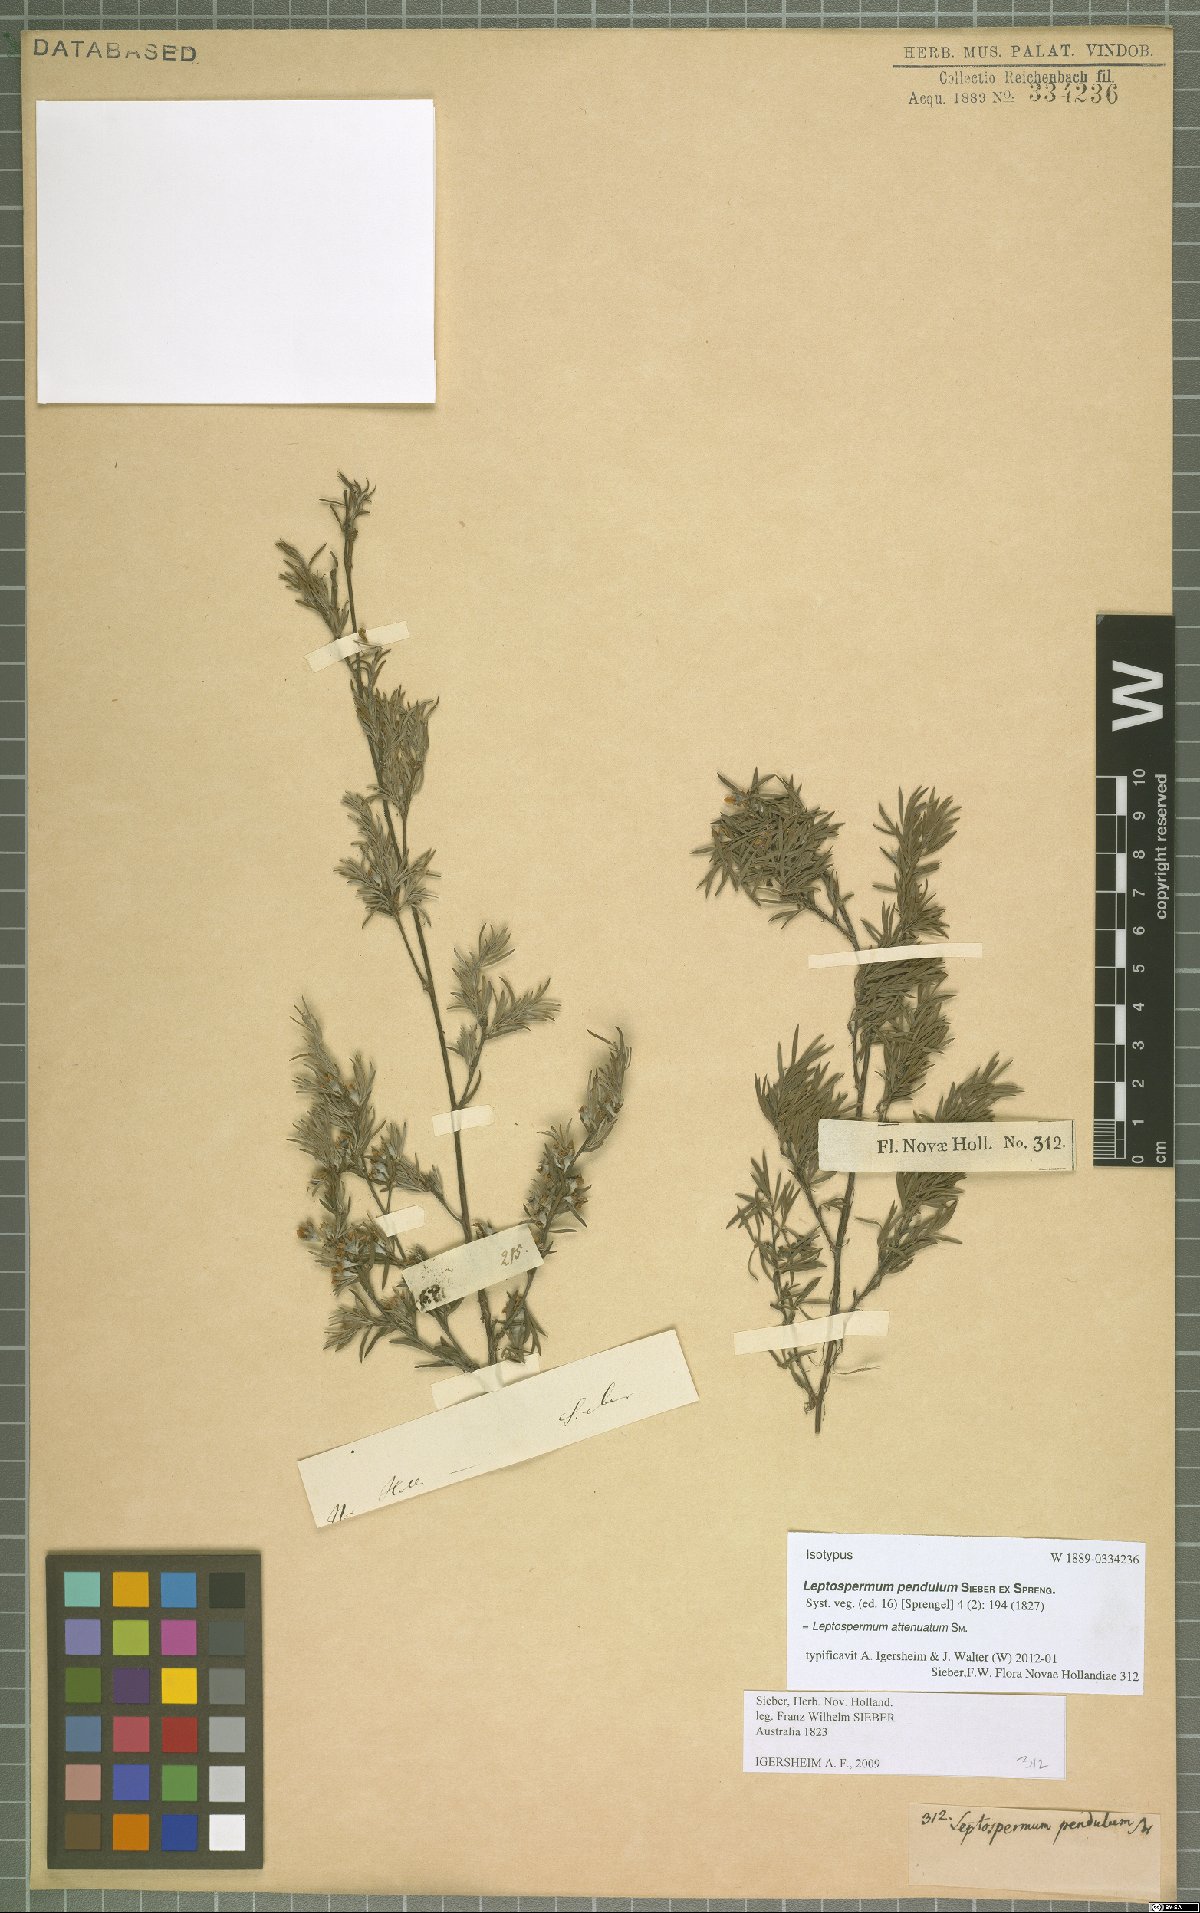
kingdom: Plantae
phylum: Tracheophyta
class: Magnoliopsida
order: Myrtales
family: Myrtaceae
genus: Leptospermum
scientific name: Leptospermum trinervium
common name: Flaky-barked tea-tree
